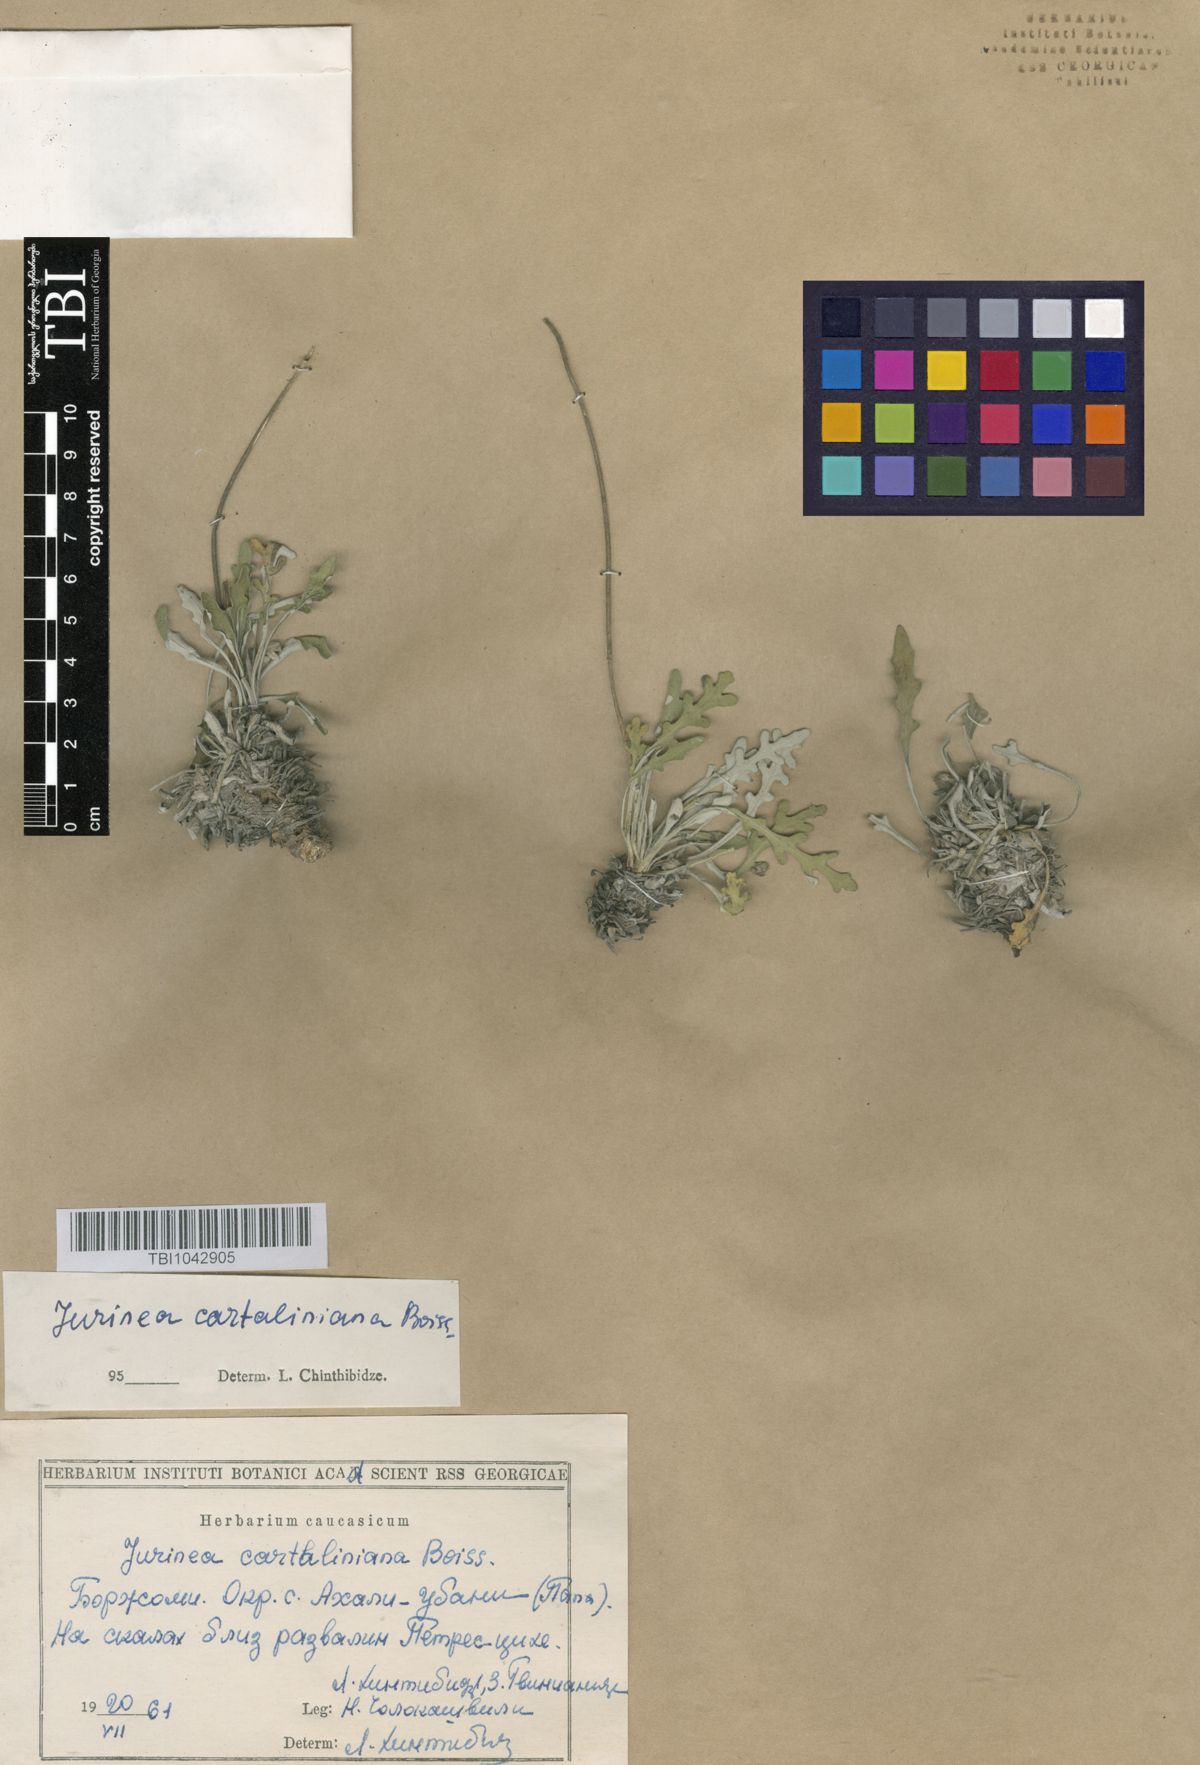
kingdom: Plantae
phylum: Tracheophyta
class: Magnoliopsida
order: Asterales
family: Asteraceae
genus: Jurinea
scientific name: Jurinea cartaliniana
